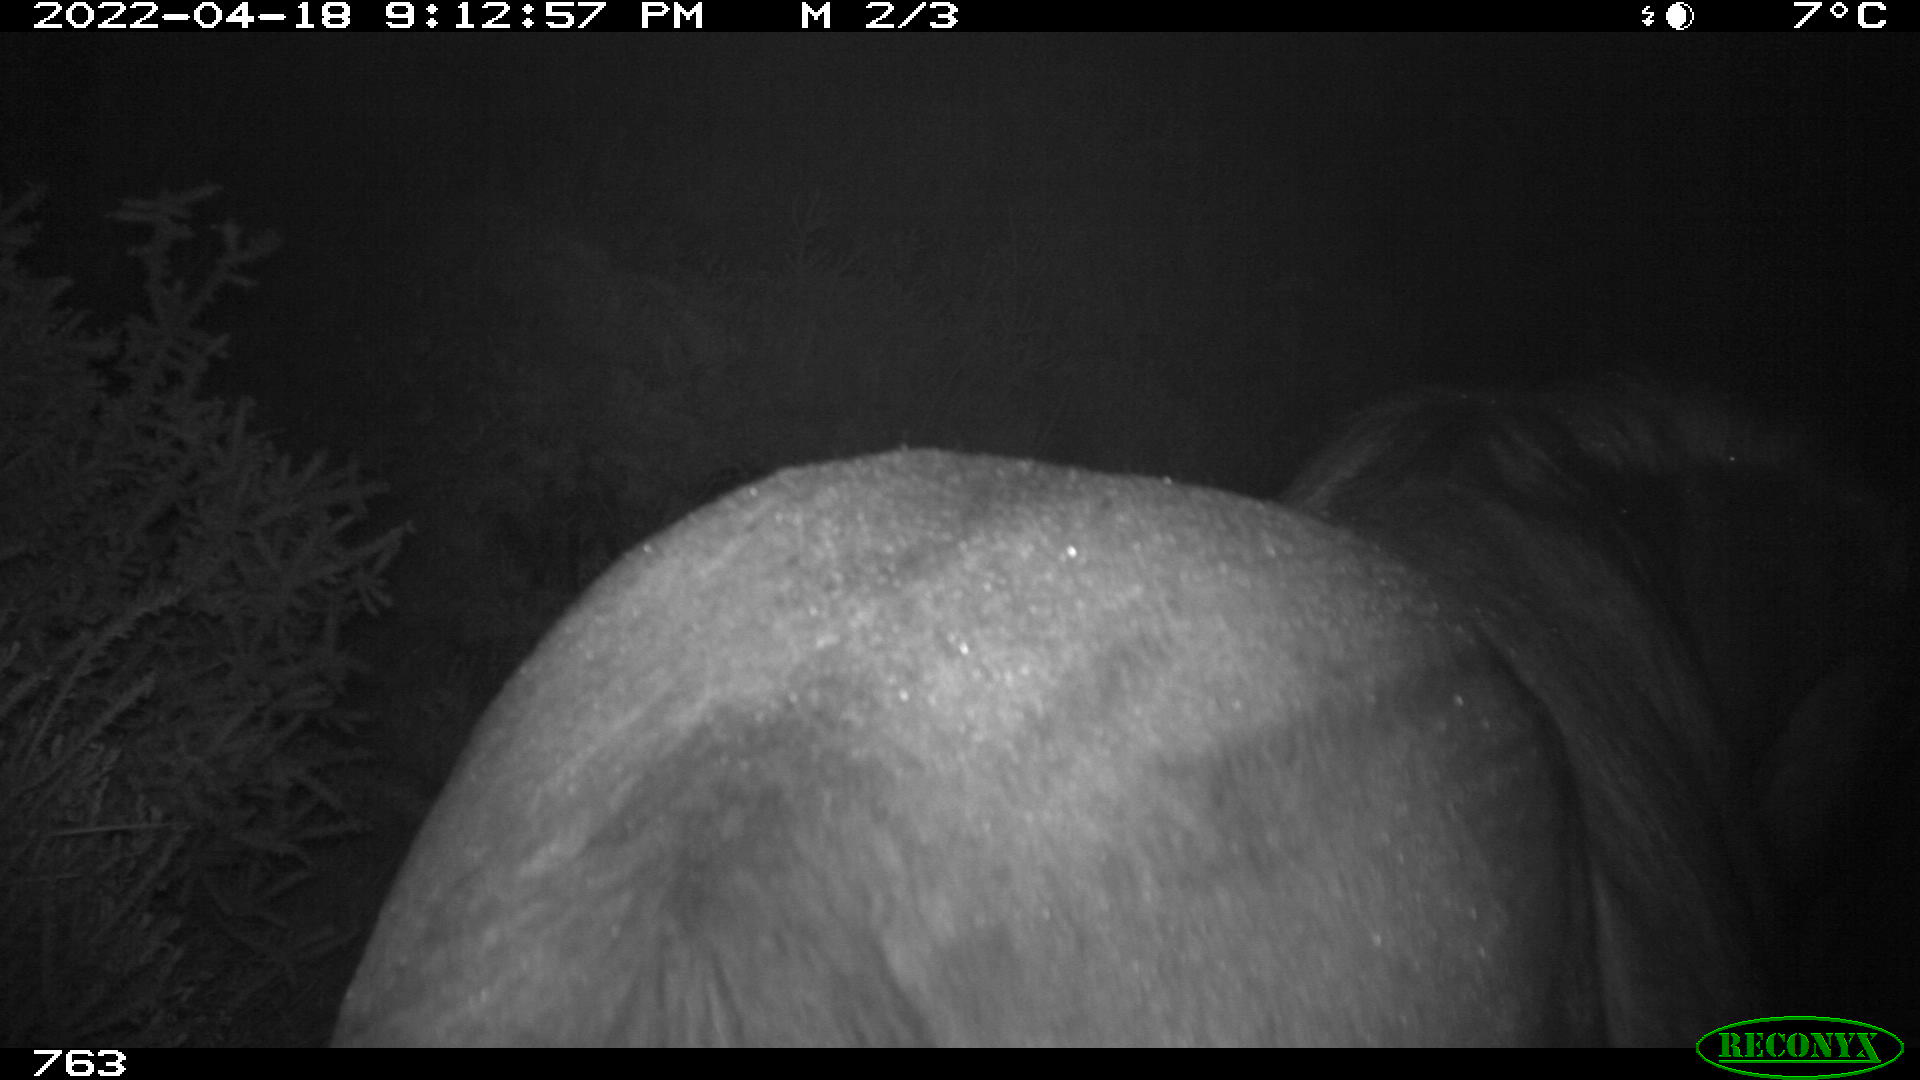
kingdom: Animalia
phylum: Chordata
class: Mammalia
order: Perissodactyla
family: Equidae
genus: Equus
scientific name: Equus caballus
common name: Horse
